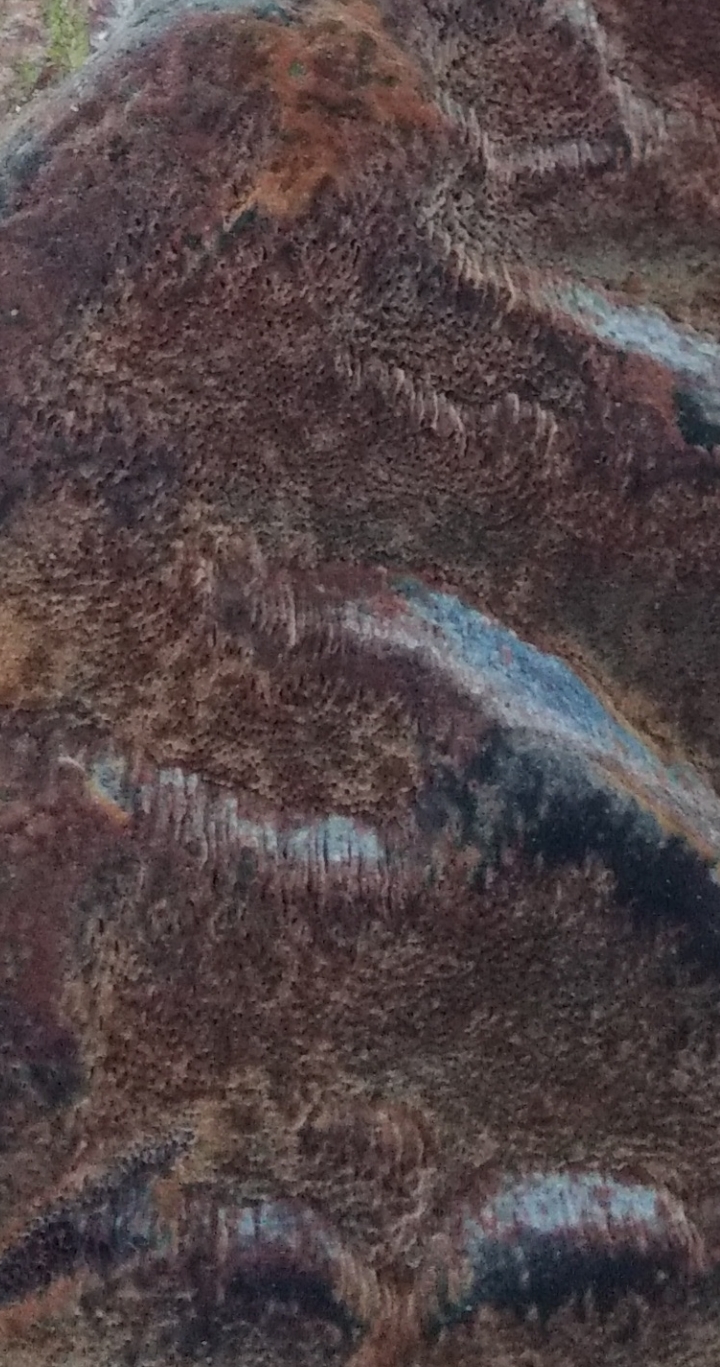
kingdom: Fungi
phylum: Basidiomycota
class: Agaricomycetes
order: Hymenochaetales
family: Hymenochaetaceae
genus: Phellinus
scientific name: Phellinus pomaceus
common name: blomme-ildporesvamp
